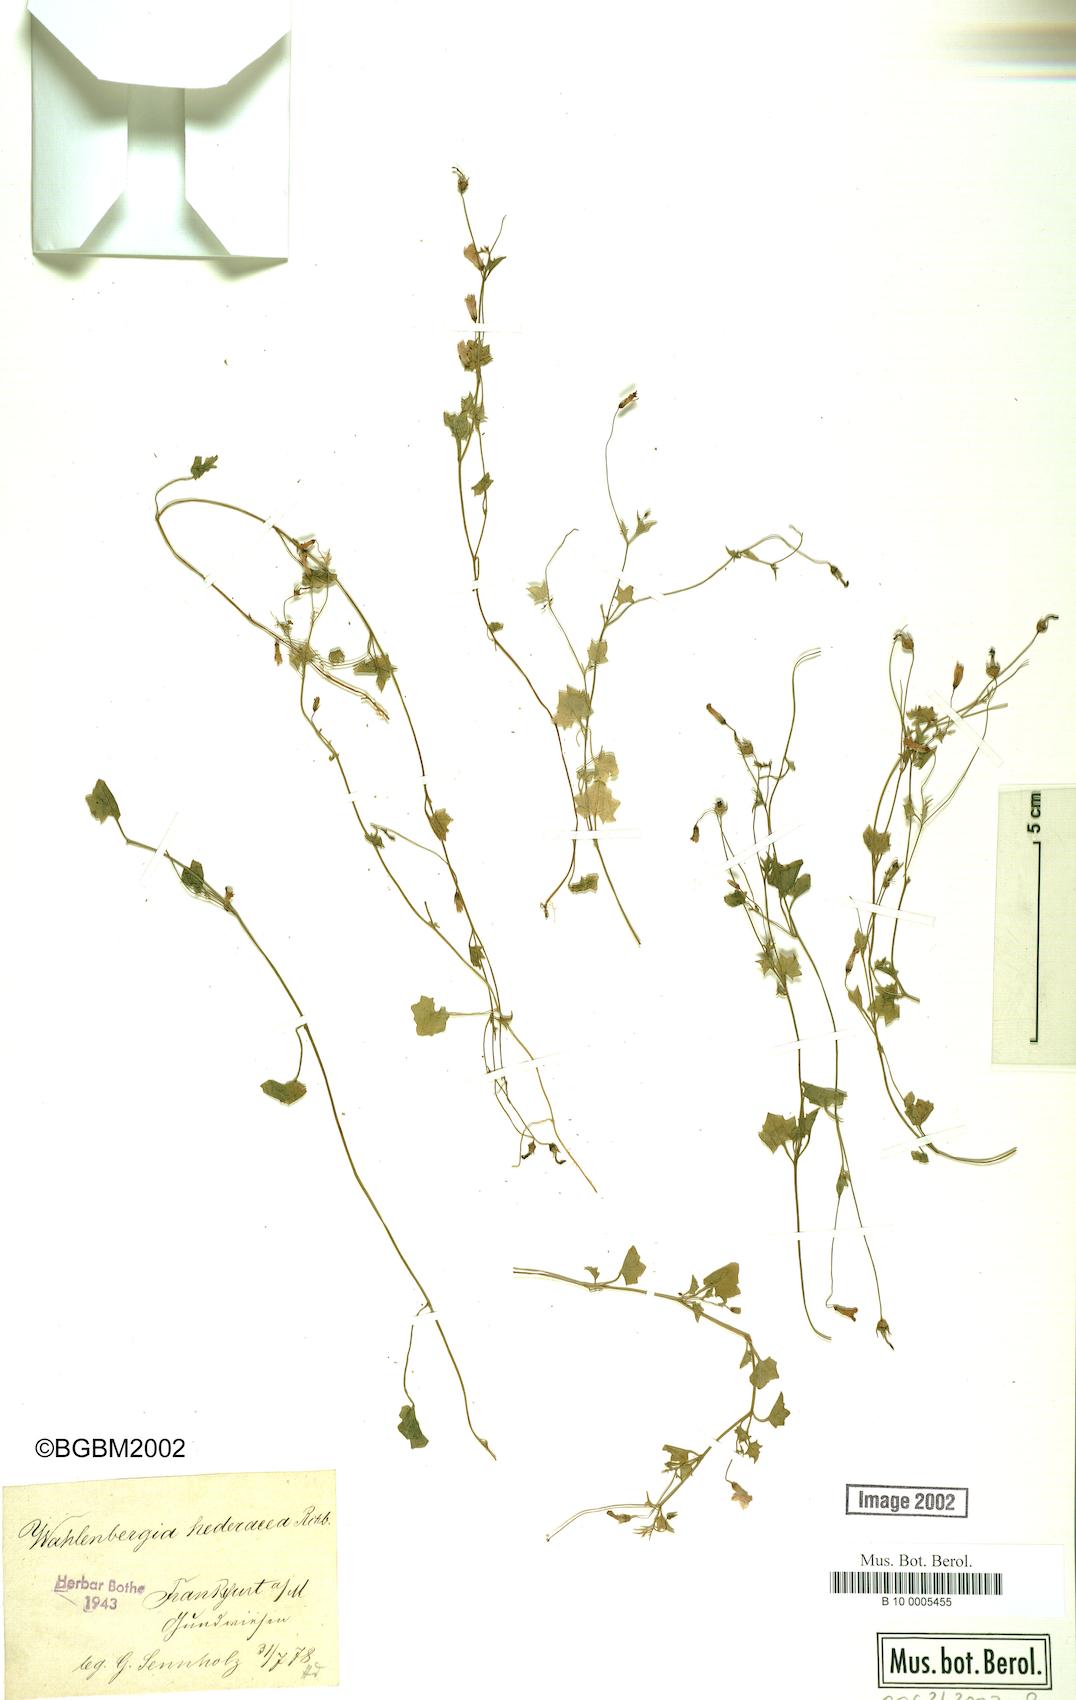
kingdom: Plantae
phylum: Tracheophyta
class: Magnoliopsida
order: Asterales
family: Campanulaceae
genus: Hesperocodon
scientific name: Hesperocodon hederaceus
